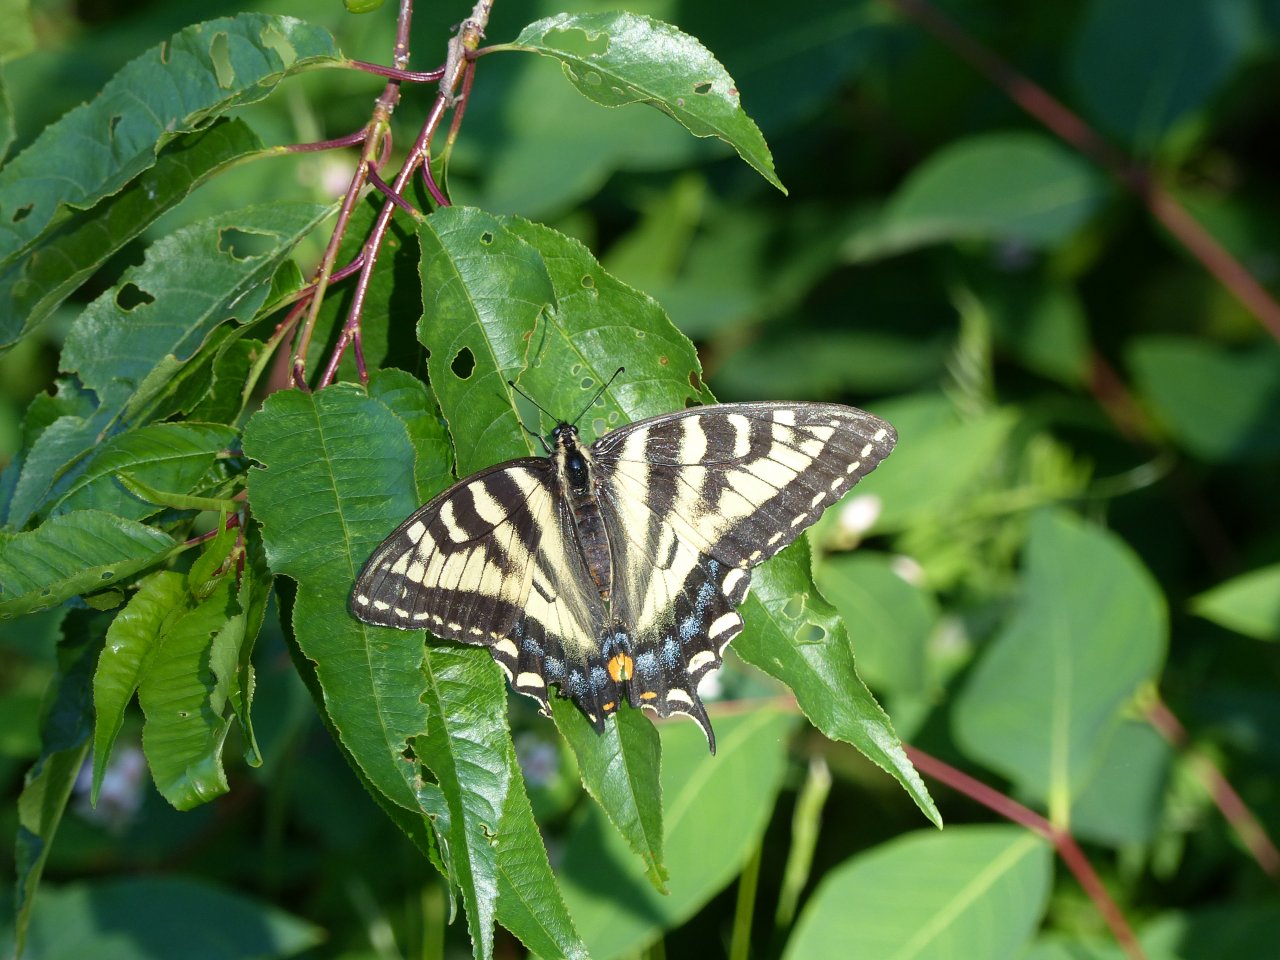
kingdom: Animalia
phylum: Arthropoda
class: Insecta
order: Lepidoptera
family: Papilionidae
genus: Pterourus
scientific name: Pterourus canadensis
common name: Canadian Tiger Swallowtail
